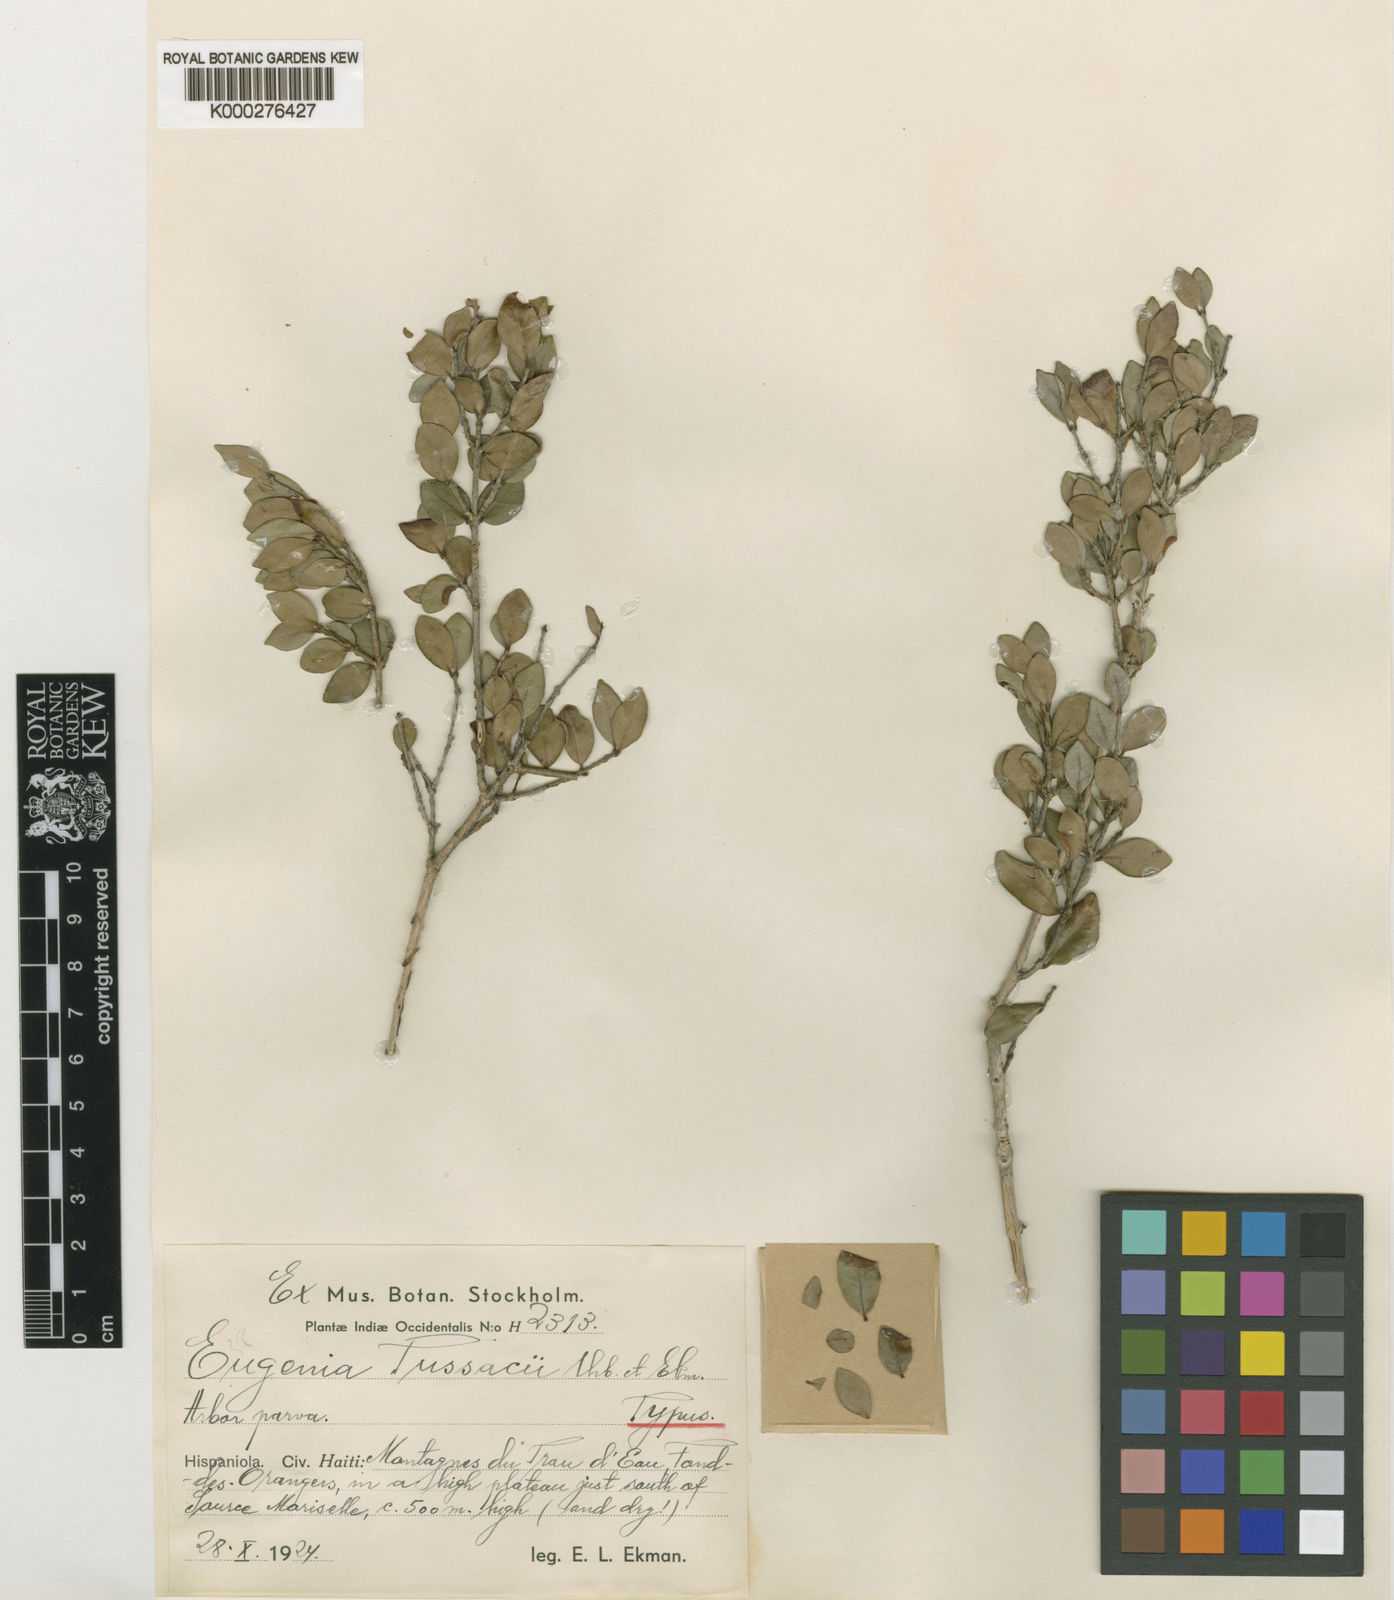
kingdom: Plantae
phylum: Tracheophyta
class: Magnoliopsida
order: Myrtales
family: Myrtaceae
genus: Mosiera
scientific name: Mosiera tussackii
